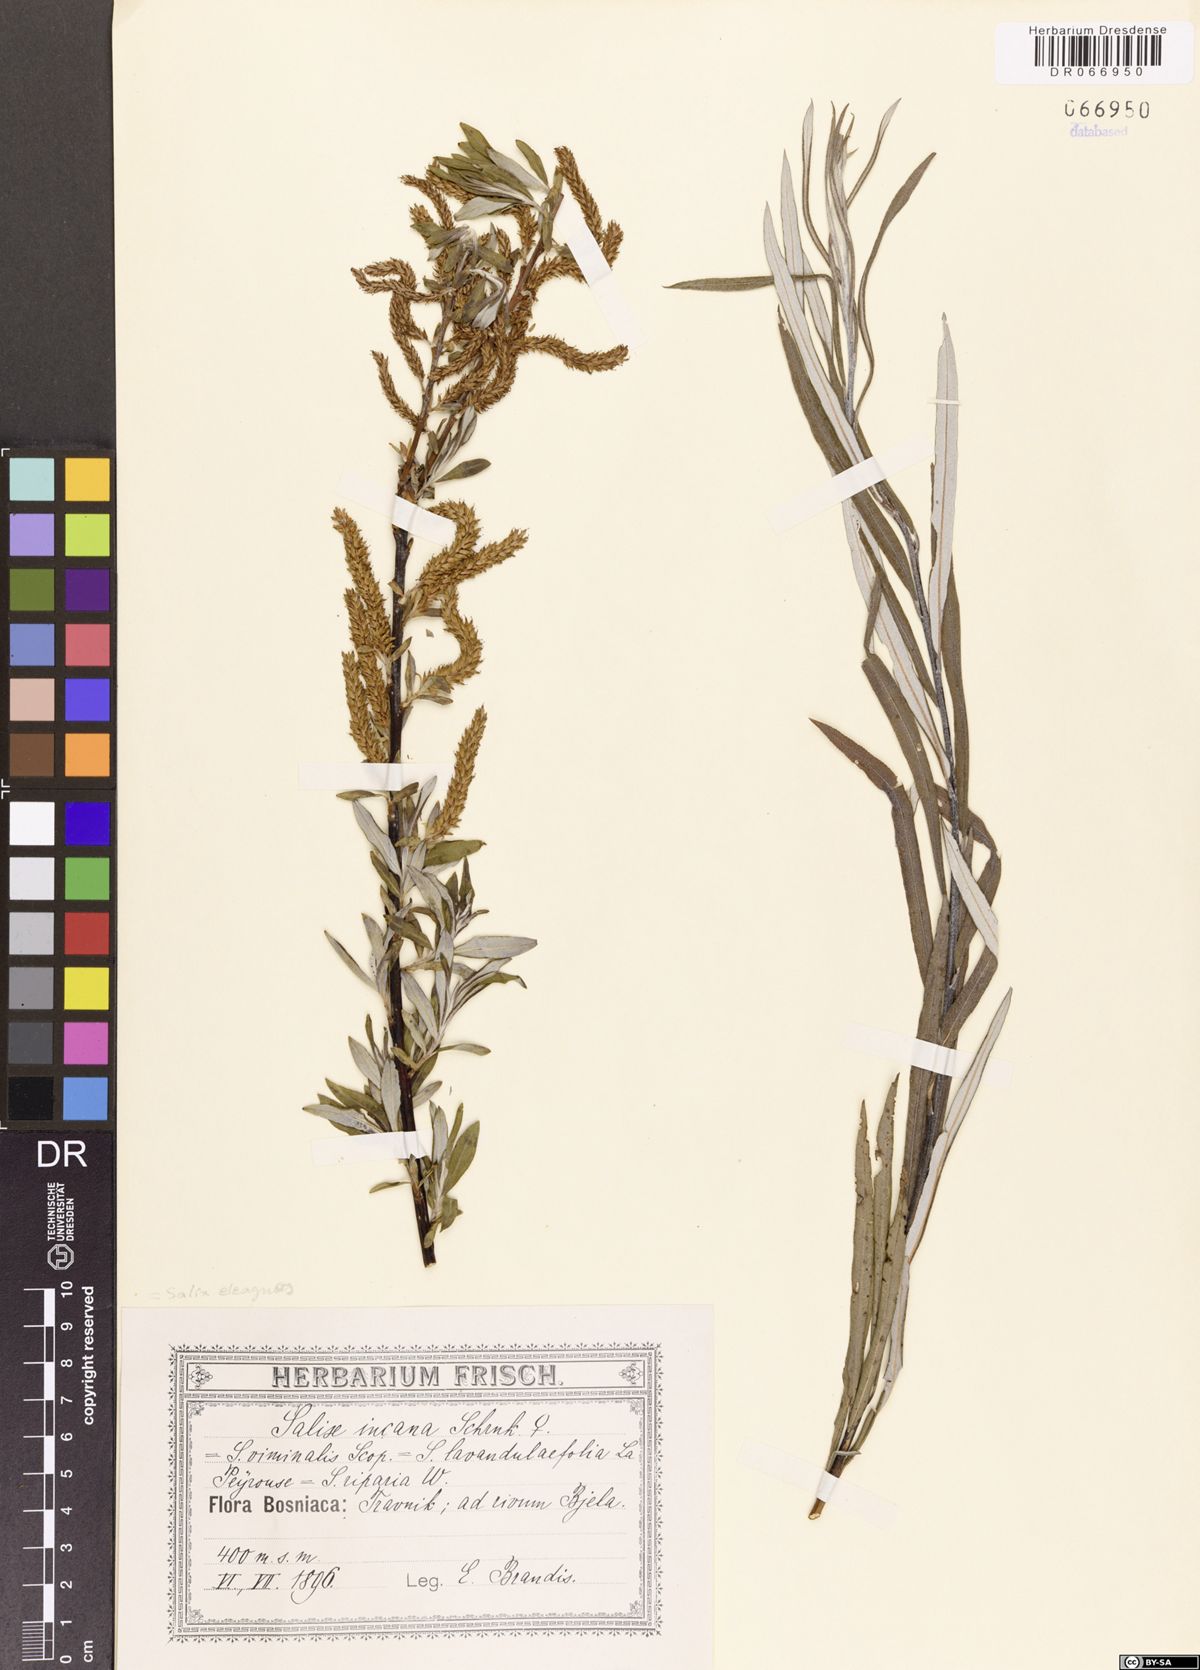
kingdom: Plantae
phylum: Tracheophyta
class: Magnoliopsida
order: Malpighiales
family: Salicaceae
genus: Salix
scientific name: Salix eleagnos
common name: Elaeagnus willow
